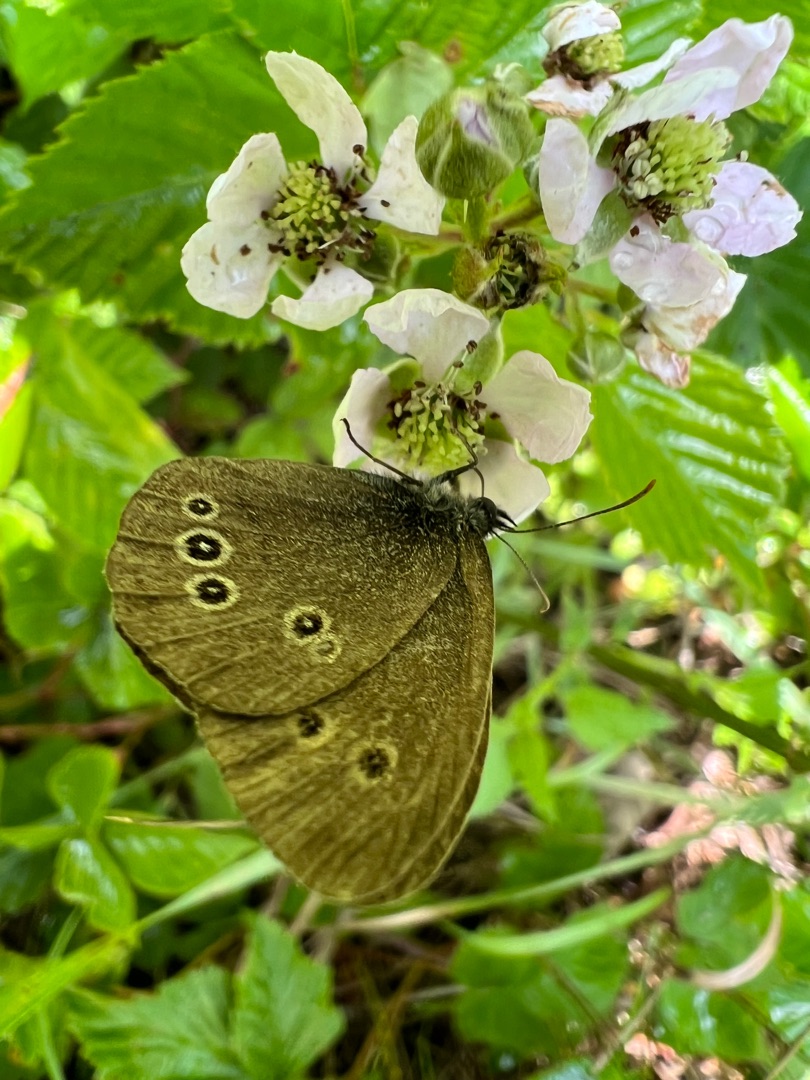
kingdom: Animalia
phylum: Arthropoda
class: Insecta
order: Lepidoptera
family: Nymphalidae
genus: Aphantopus
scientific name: Aphantopus hyperantus
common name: Engrandøje
